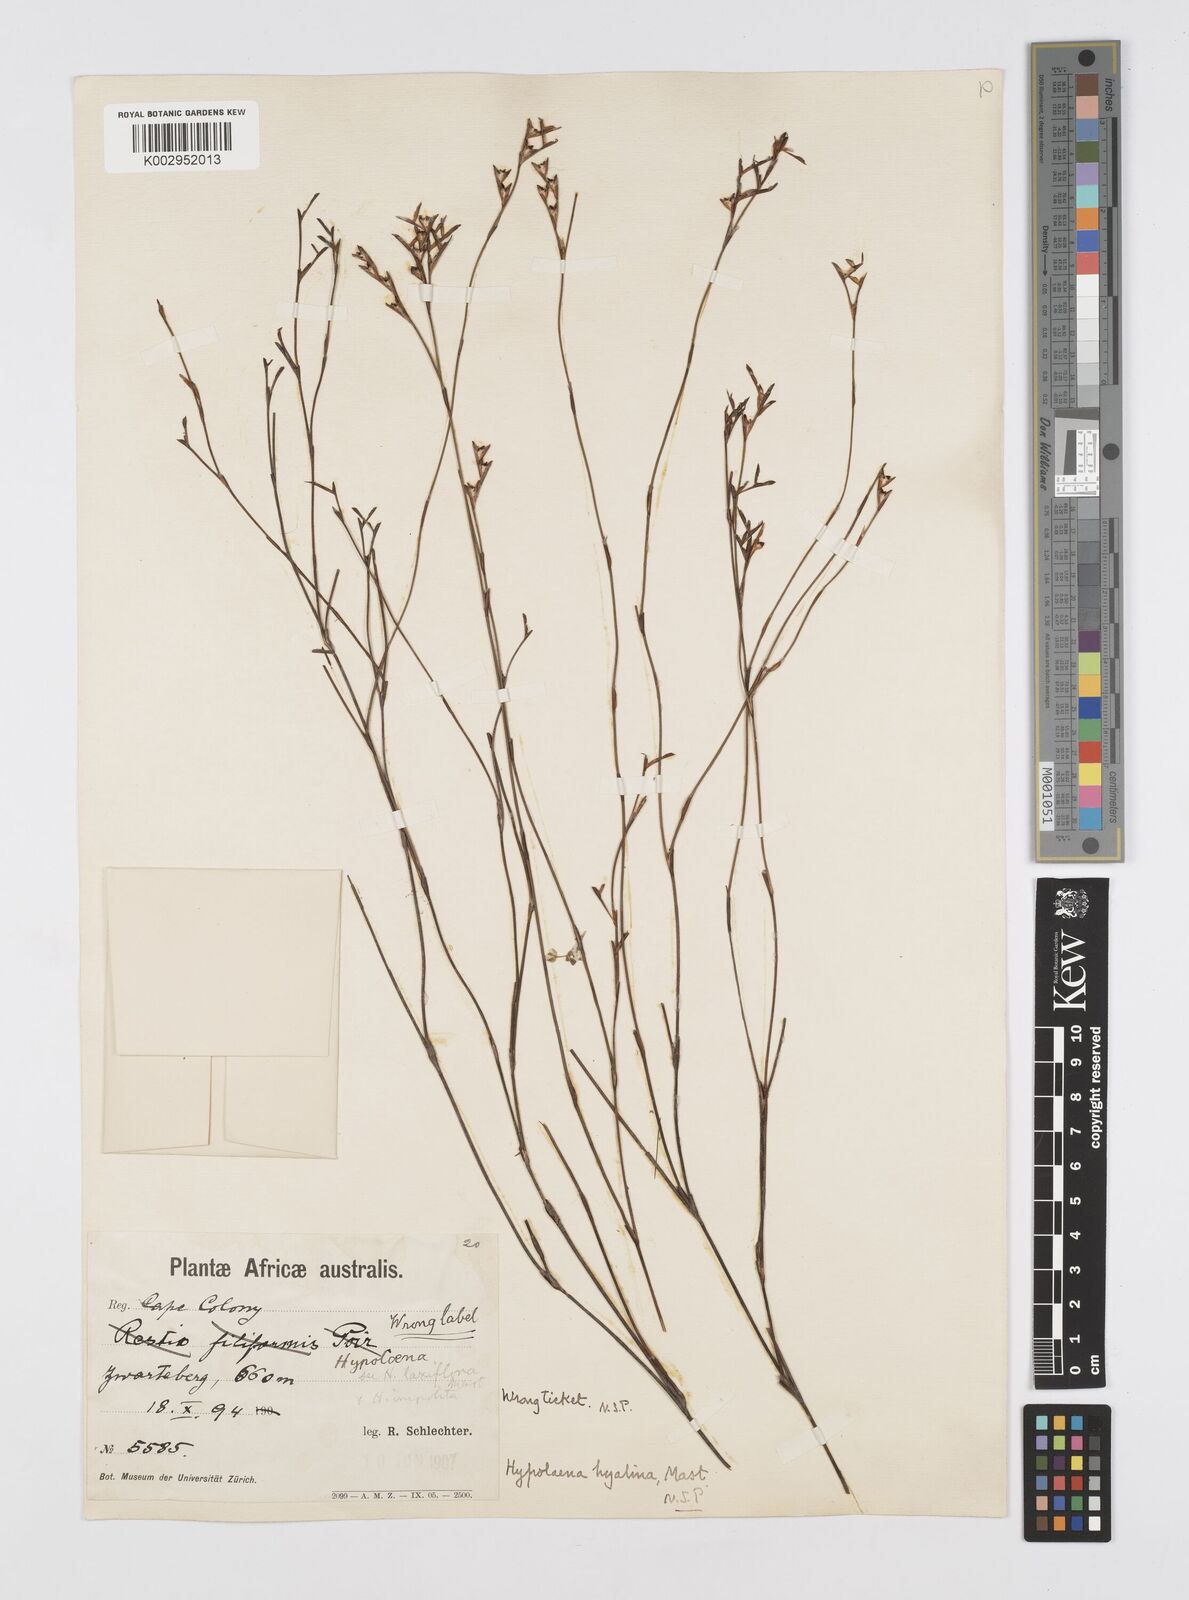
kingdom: Plantae
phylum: Tracheophyta
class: Liliopsida
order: Poales
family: Restionaceae
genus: Restio
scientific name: Restio hyalinus
